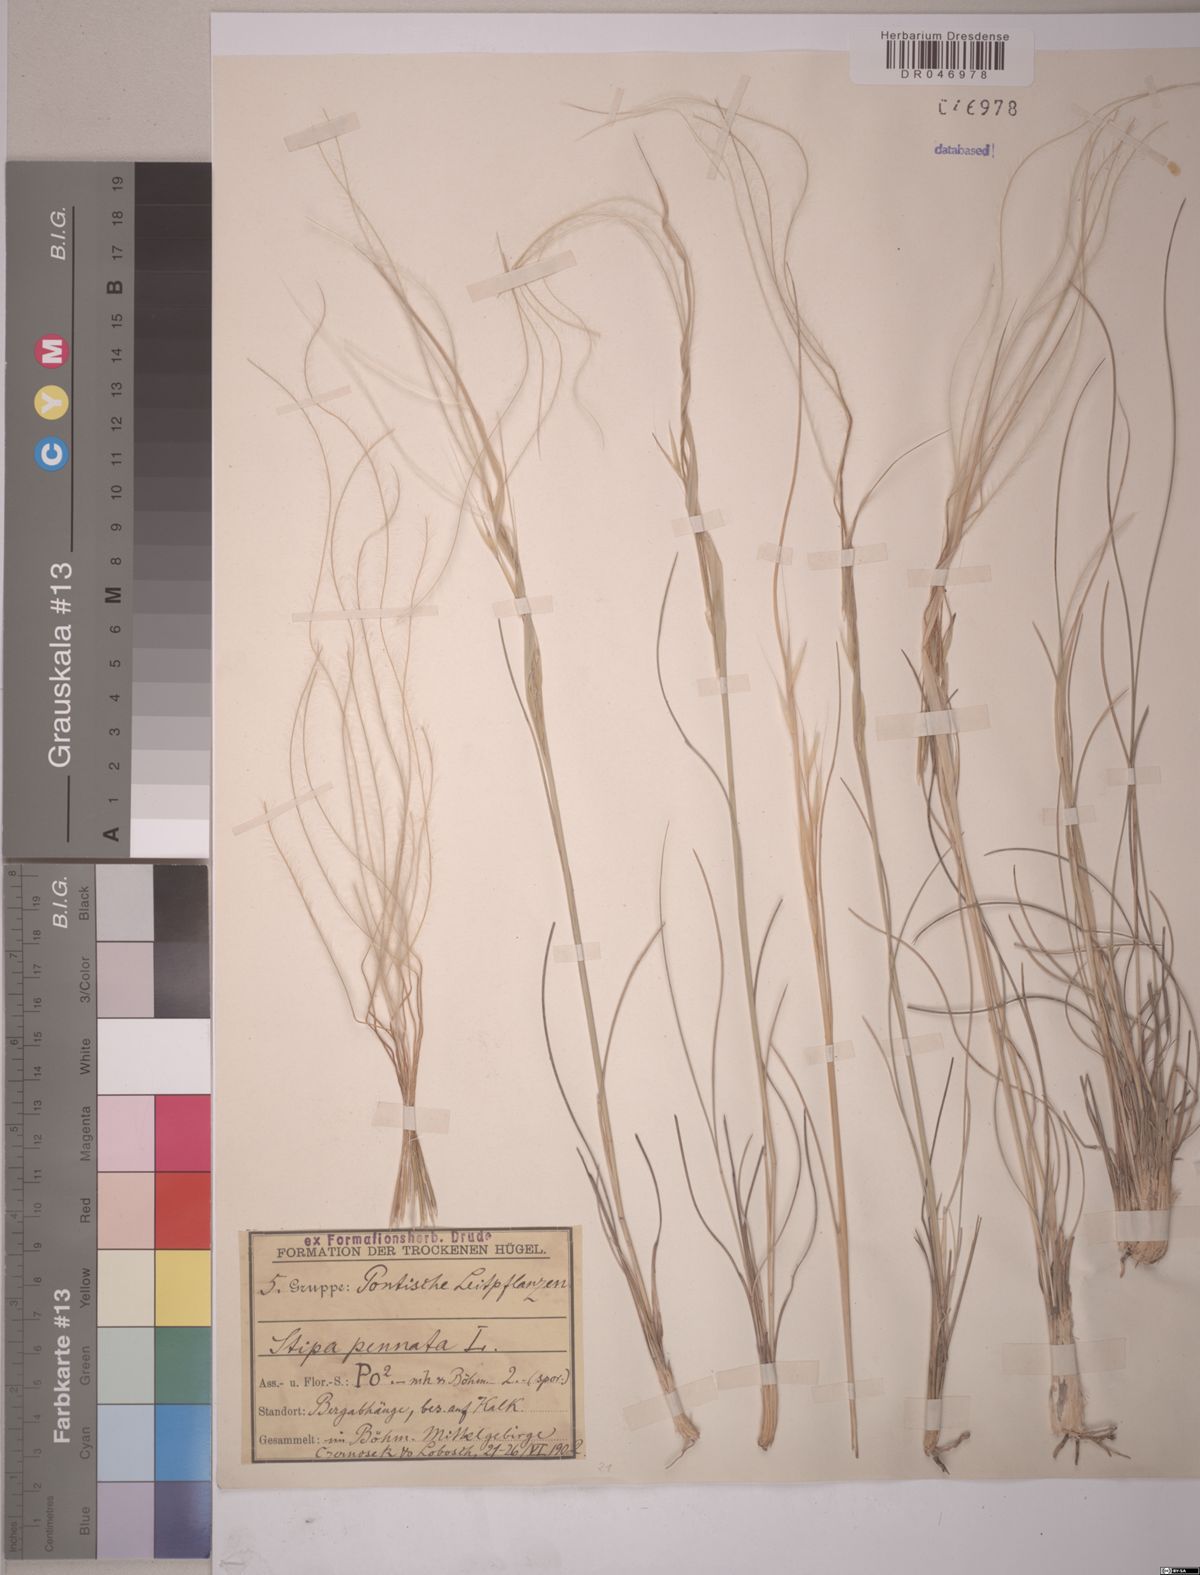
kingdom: Plantae
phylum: Tracheophyta
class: Liliopsida
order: Poales
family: Poaceae
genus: Stipa
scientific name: Stipa pennata
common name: European feather grass
